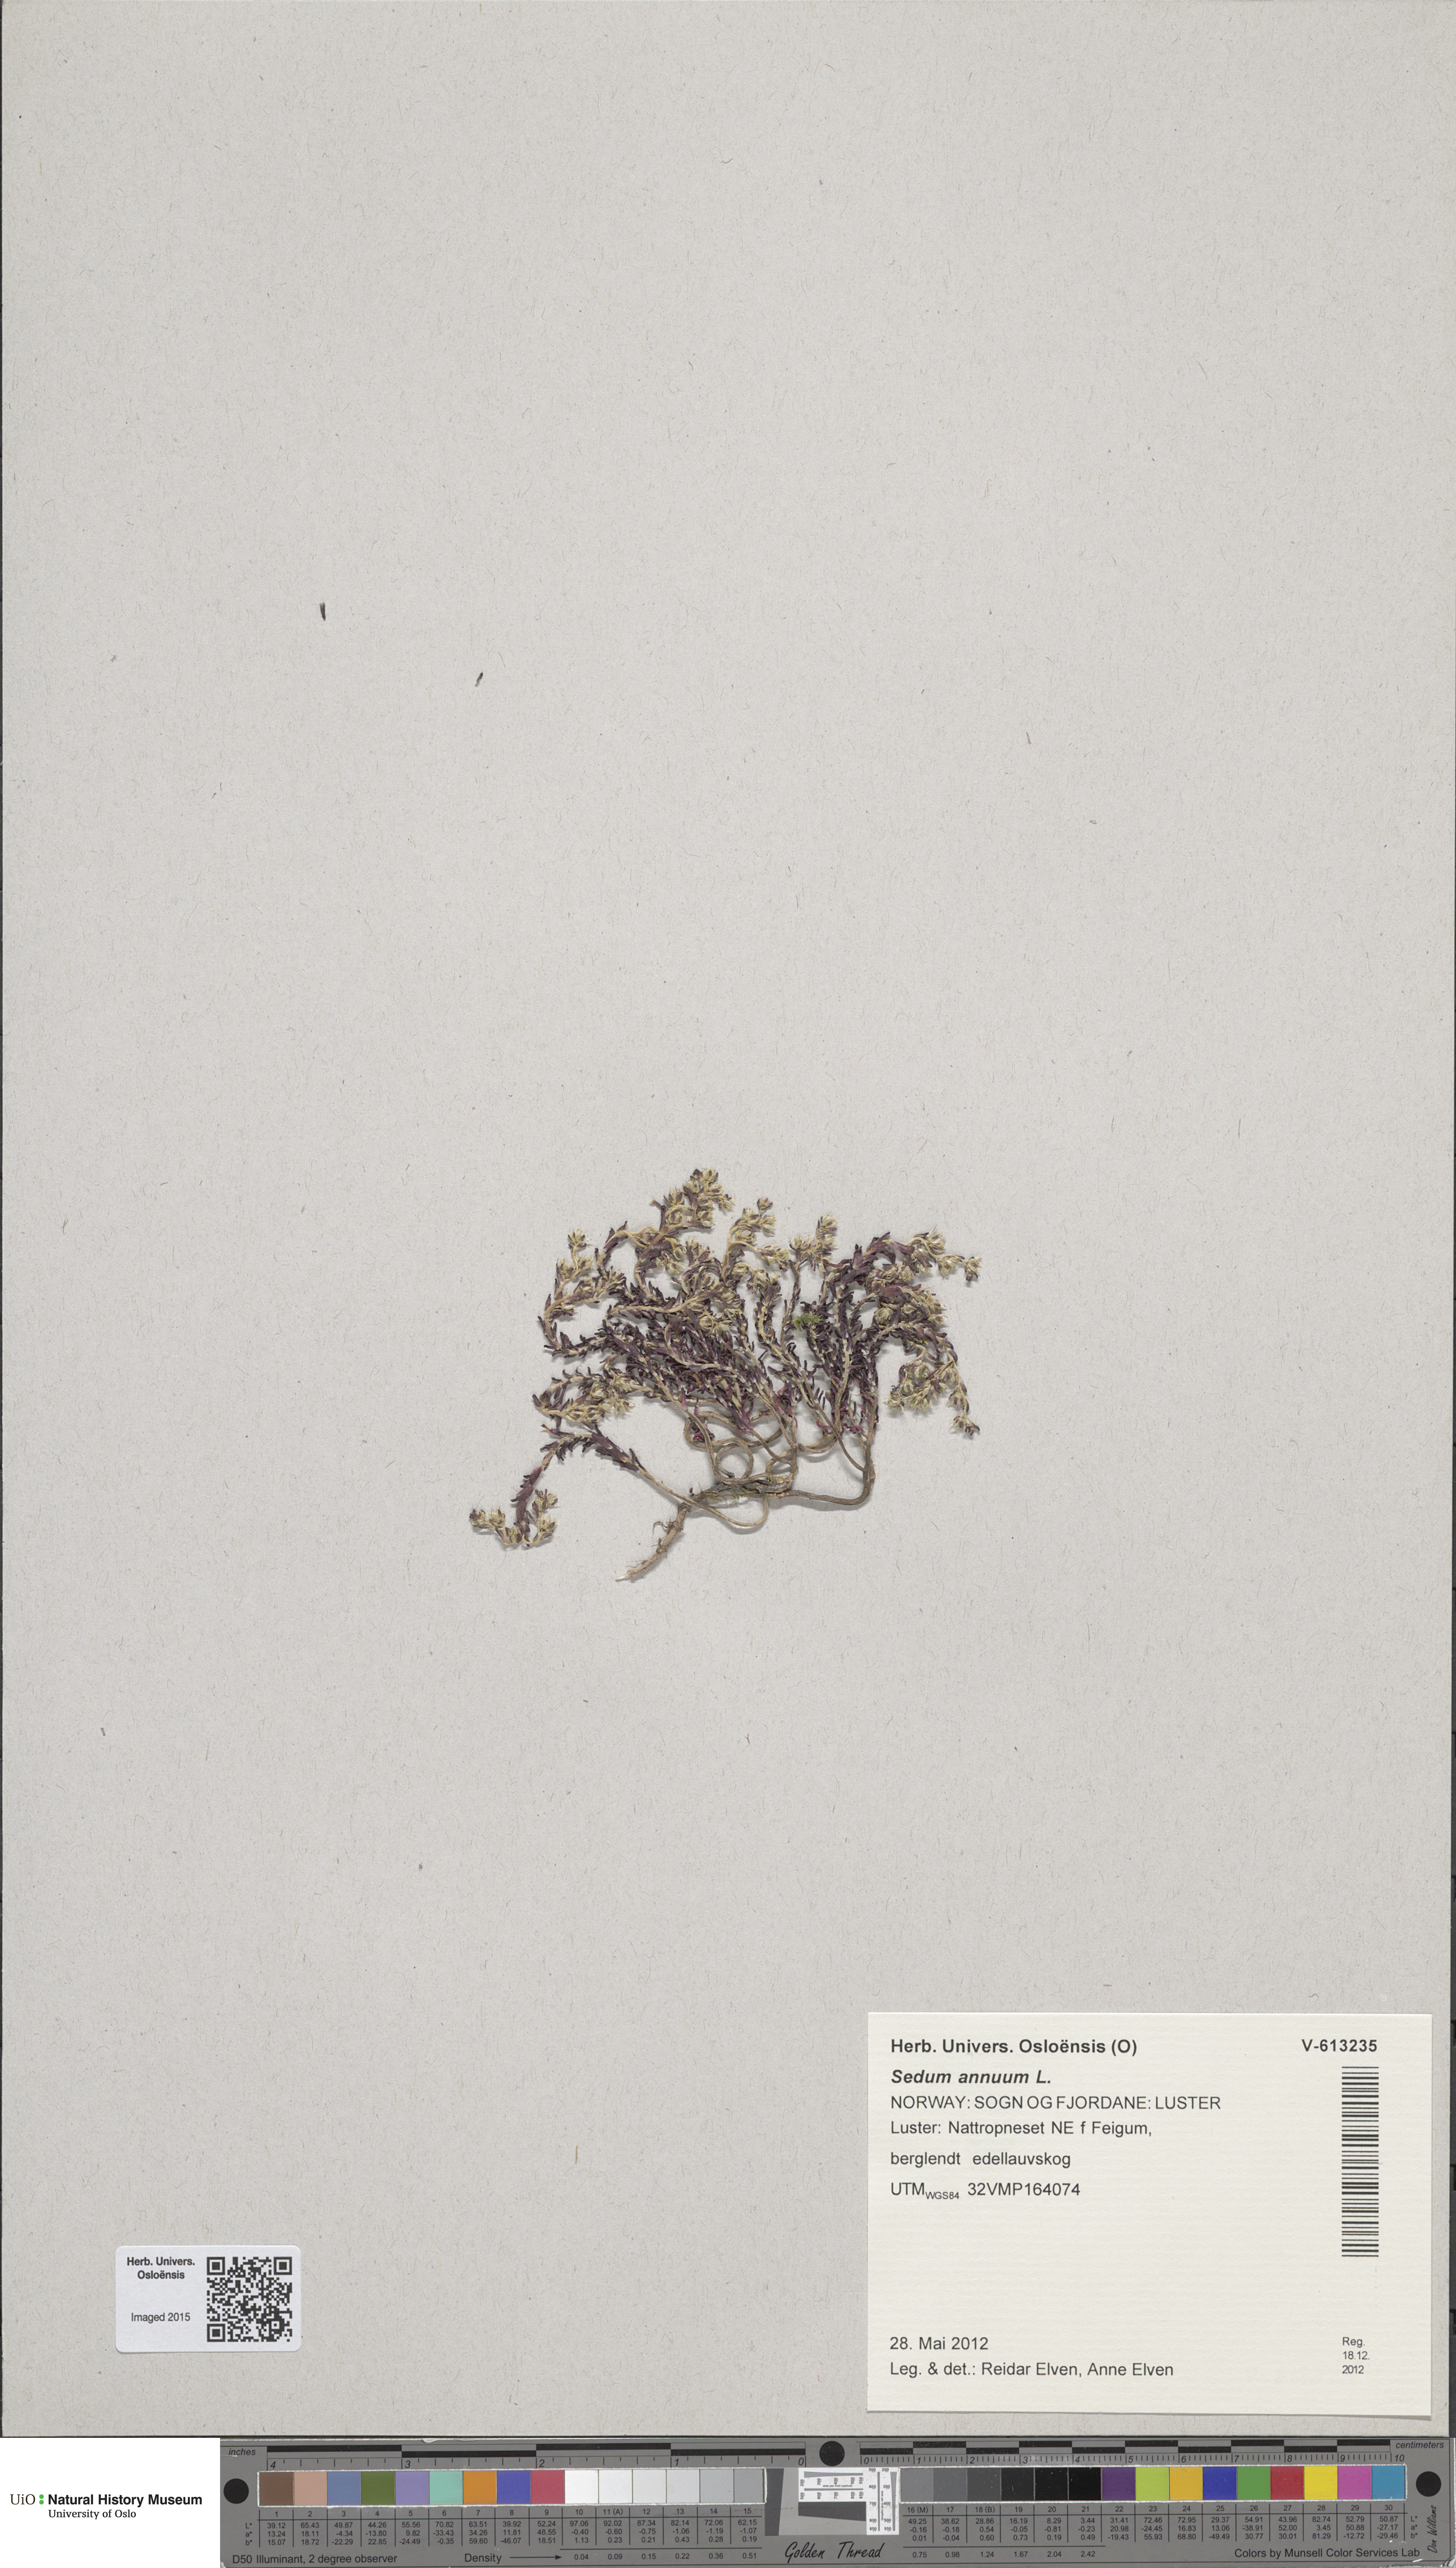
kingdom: Plantae
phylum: Tracheophyta
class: Magnoliopsida
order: Saxifragales
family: Crassulaceae
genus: Sedum
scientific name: Sedum annuum
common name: Annual stonecrop
